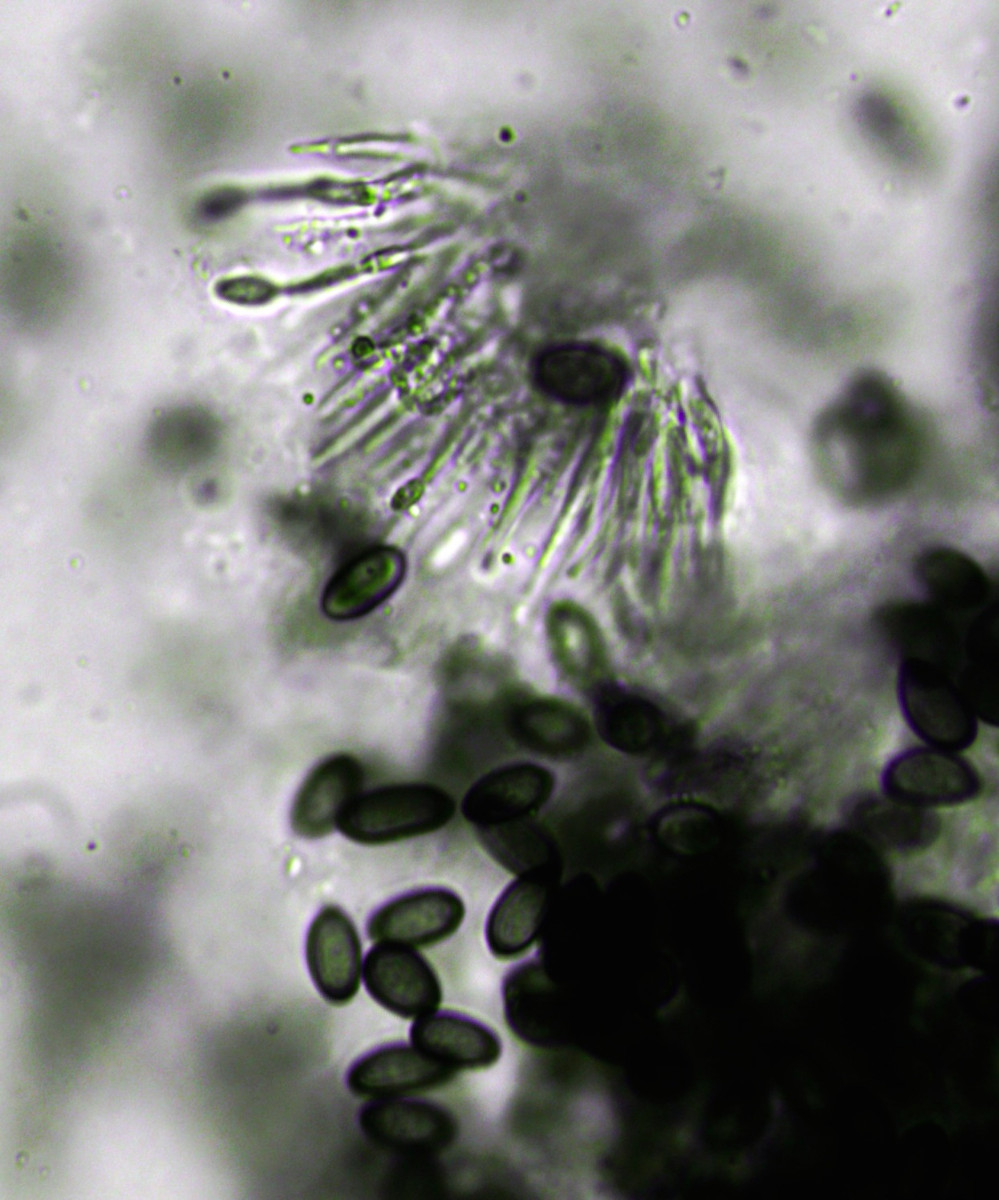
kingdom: Fungi
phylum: Ascomycota
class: Sordariomycetes
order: Diaporthales
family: Melanconidaceae
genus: Melanconis
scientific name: Melanconis stilbostoma
